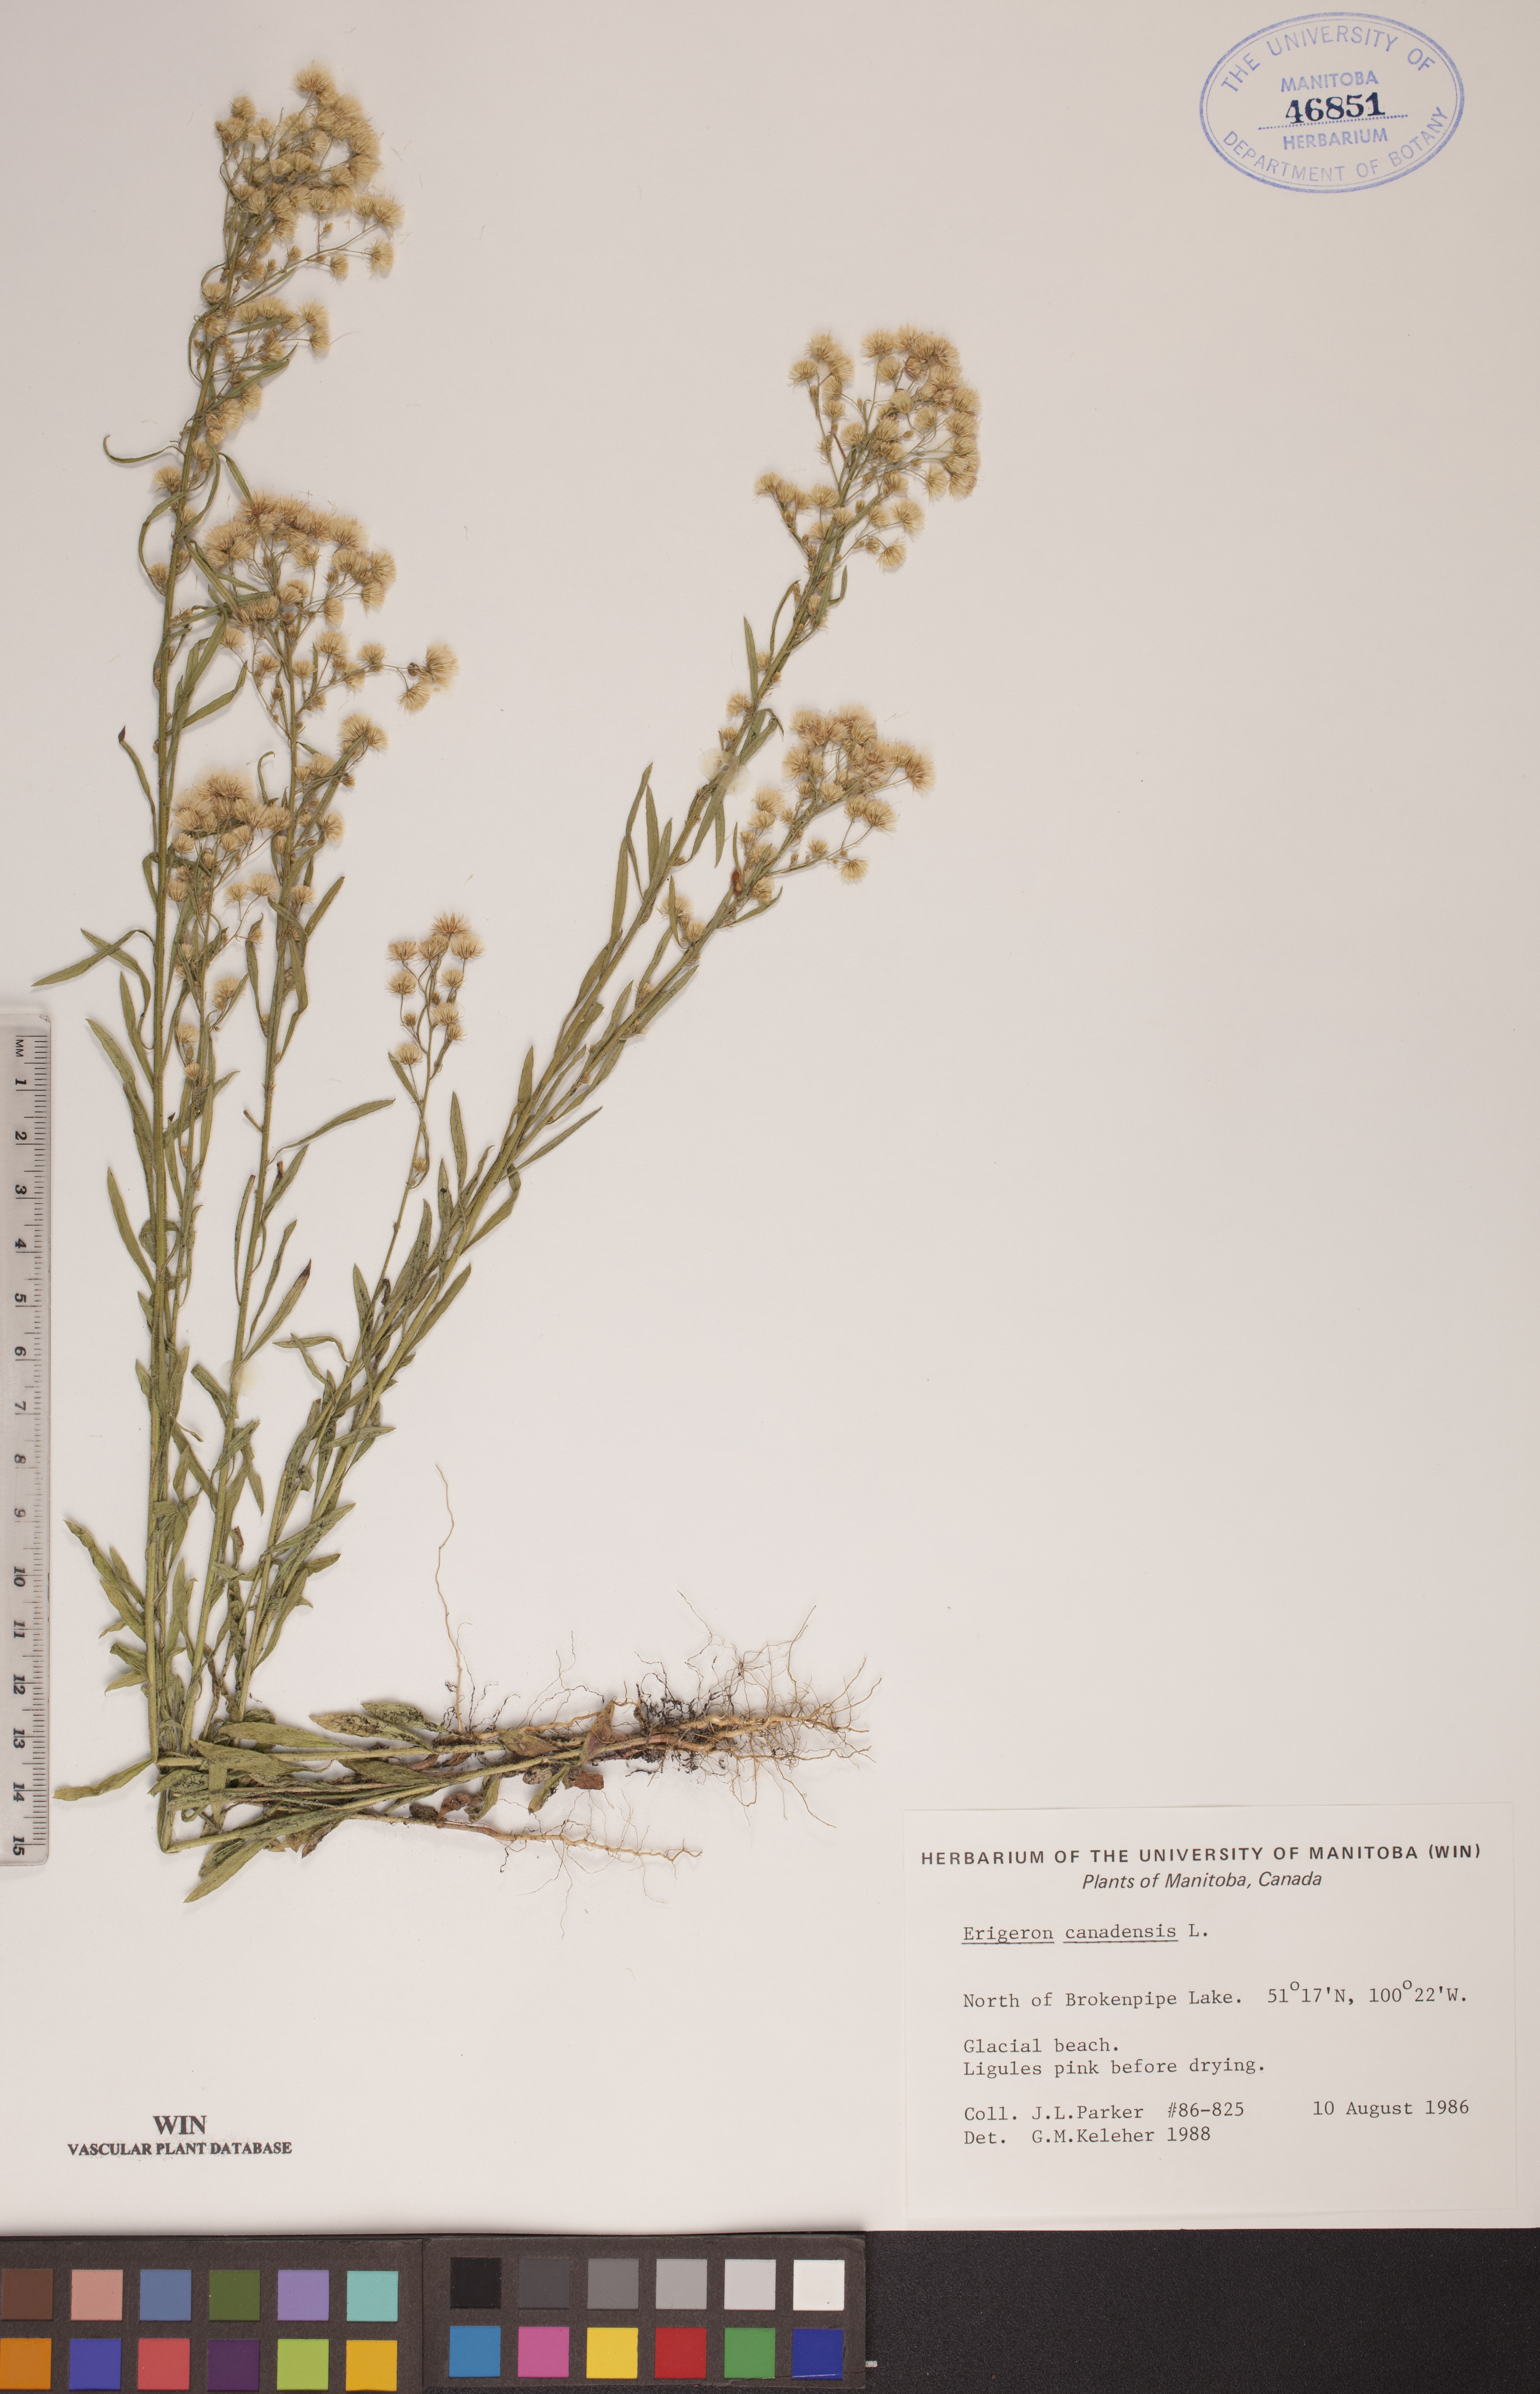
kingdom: Plantae
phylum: Tracheophyta
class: Magnoliopsida
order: Asterales
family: Asteraceae
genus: Erigeron
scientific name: Erigeron canadensis
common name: Canadian fleabane
